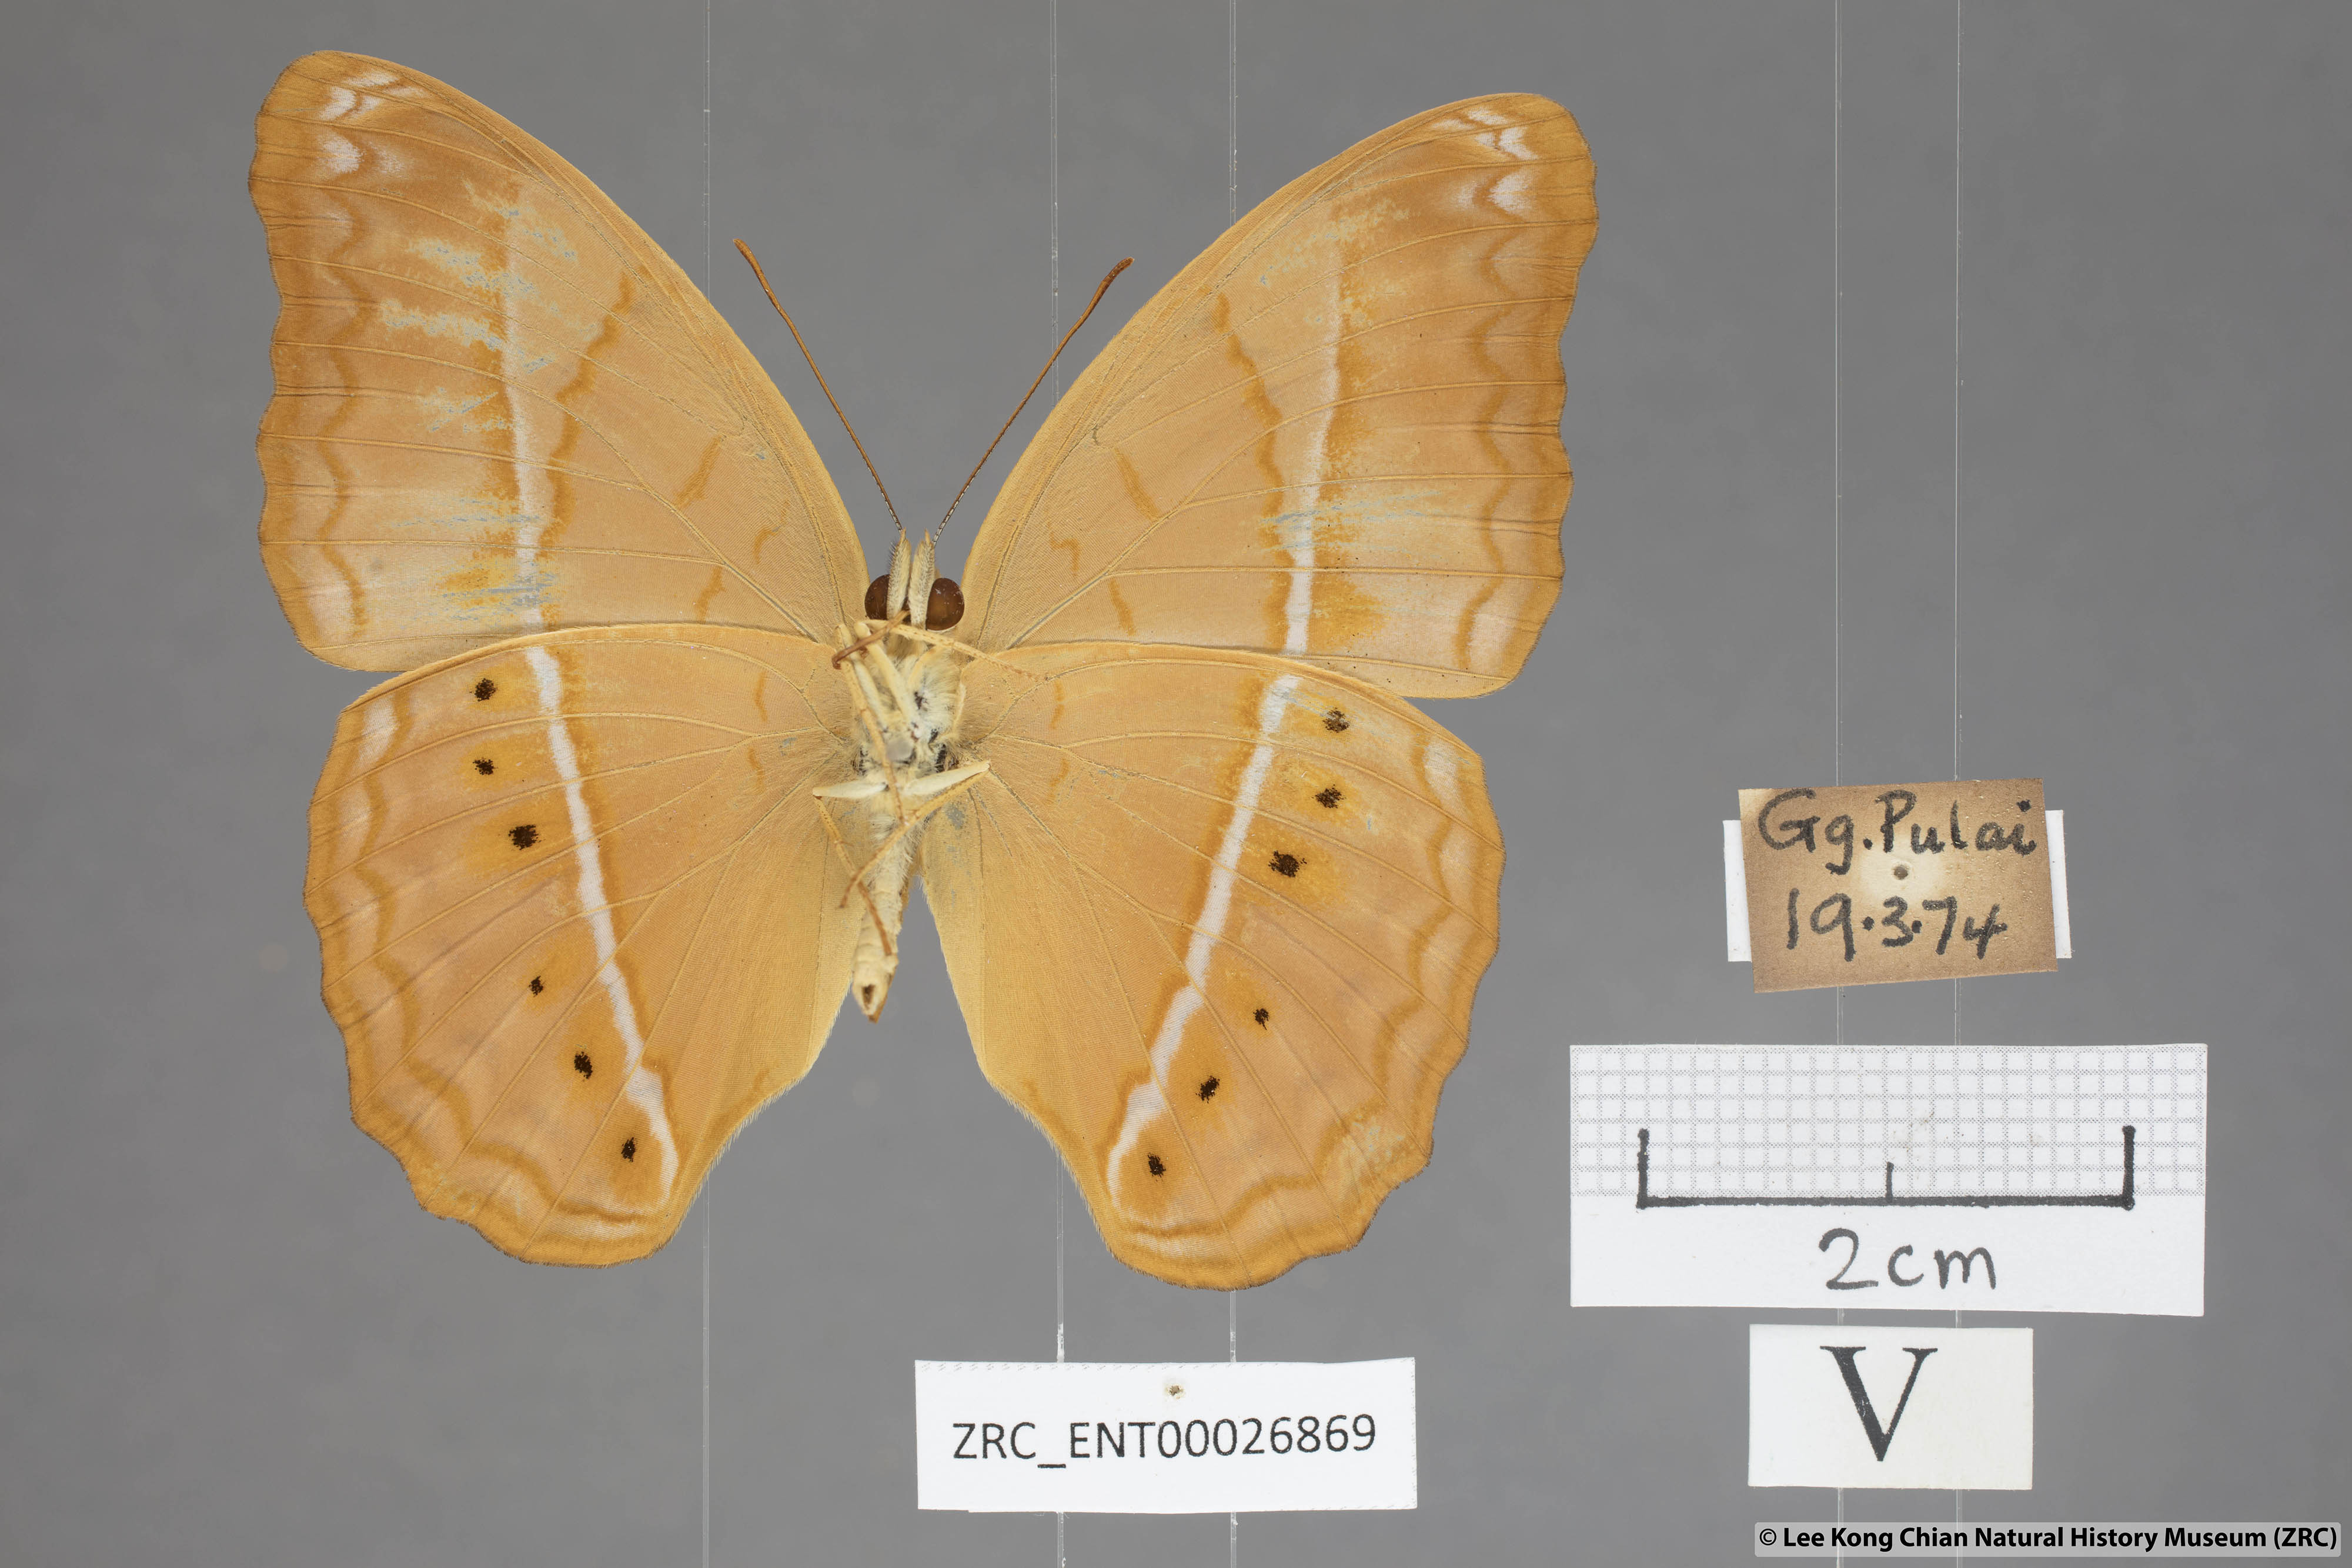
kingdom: Animalia
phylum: Arthropoda
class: Insecta
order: Lepidoptera
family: Nymphalidae
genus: Cirrochroa
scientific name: Cirrochroa malaya
